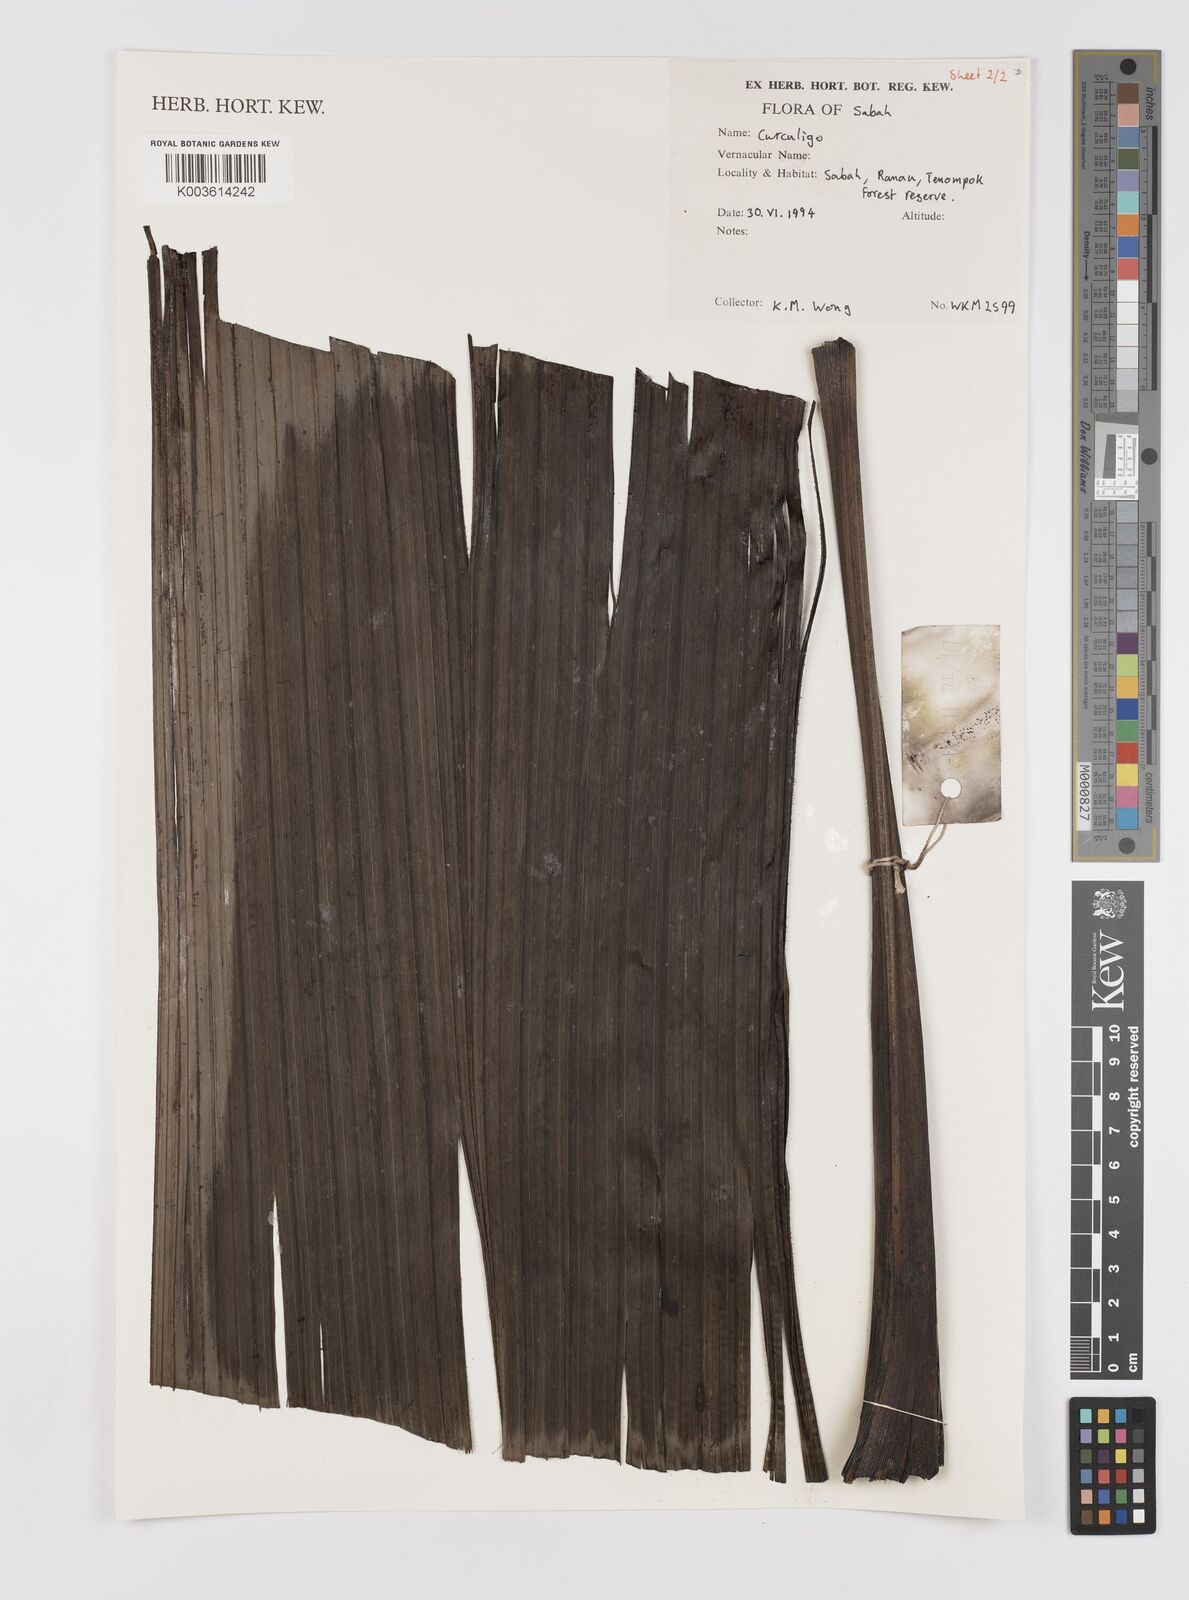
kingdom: Plantae
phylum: Tracheophyta
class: Liliopsida
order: Asparagales
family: Hypoxidaceae
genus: Curculigo
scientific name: Curculigo
